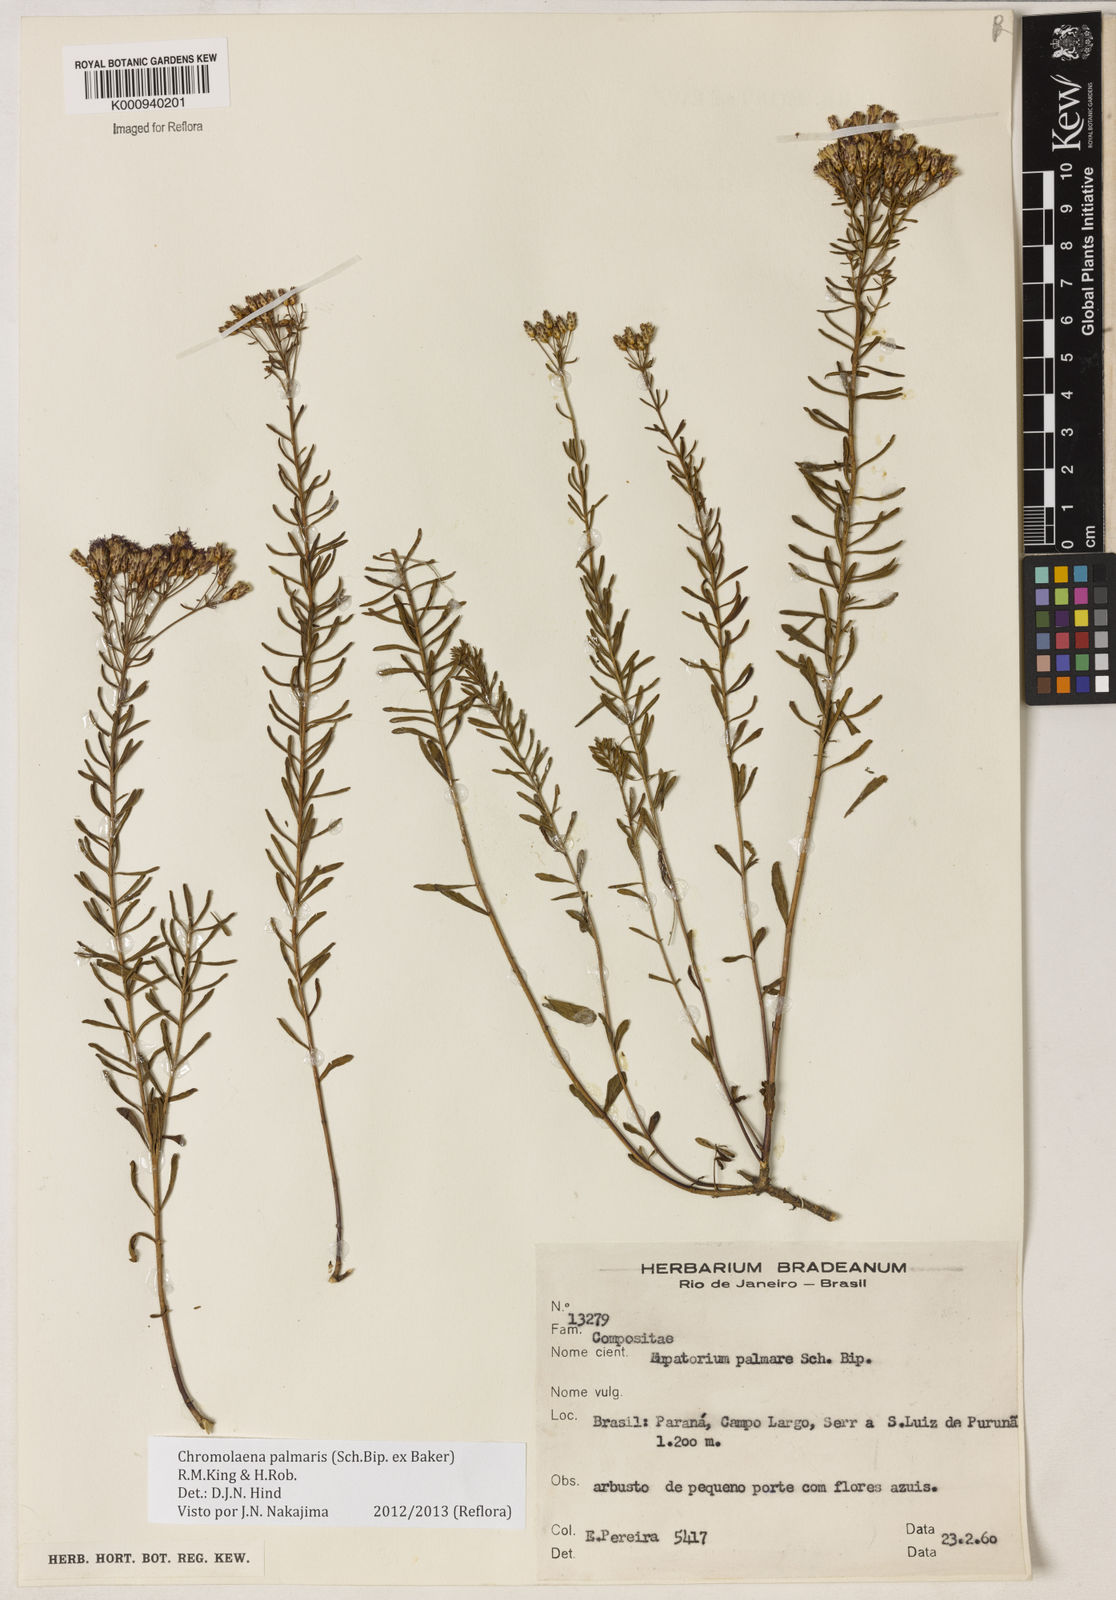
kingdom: Plantae
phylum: Tracheophyta
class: Magnoliopsida
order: Asterales
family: Asteraceae
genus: Chromolaena
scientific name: Chromolaena palmaris
